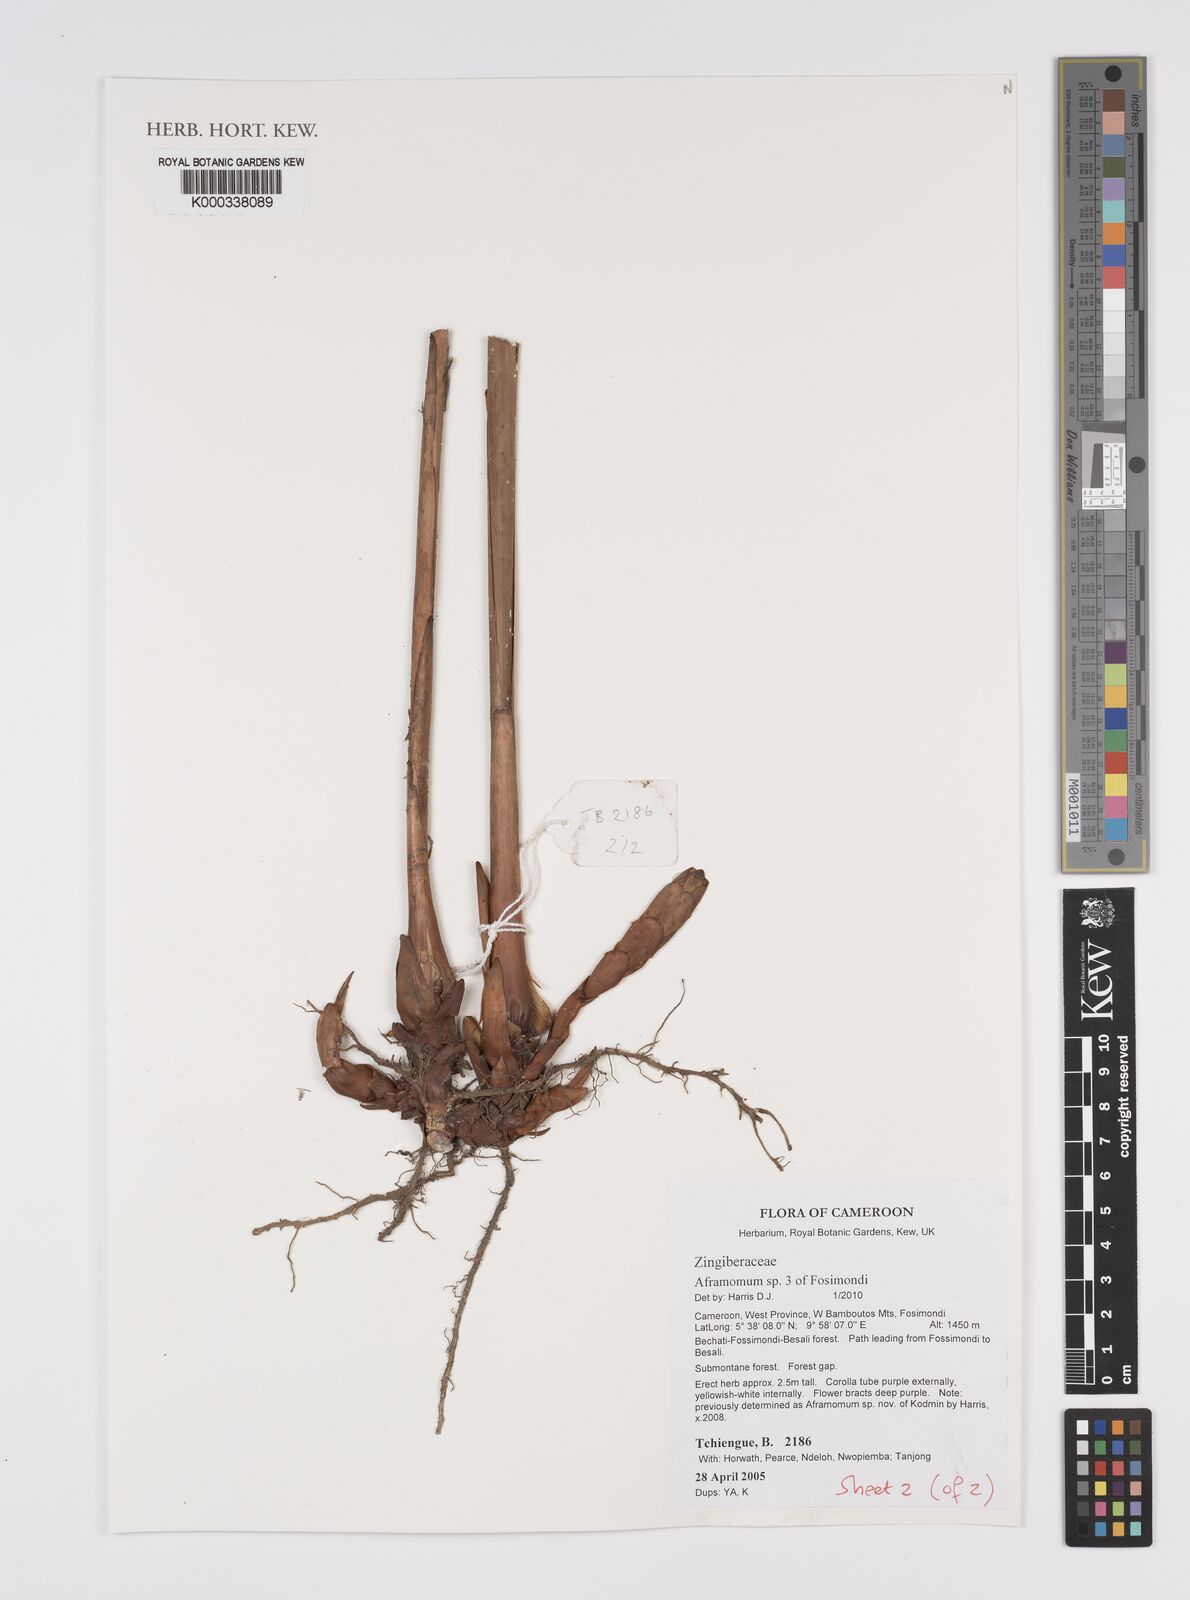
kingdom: Plantae
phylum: Tracheophyta
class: Liliopsida
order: Zingiberales
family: Zingiberaceae
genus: Aframomum
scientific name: Aframomum
